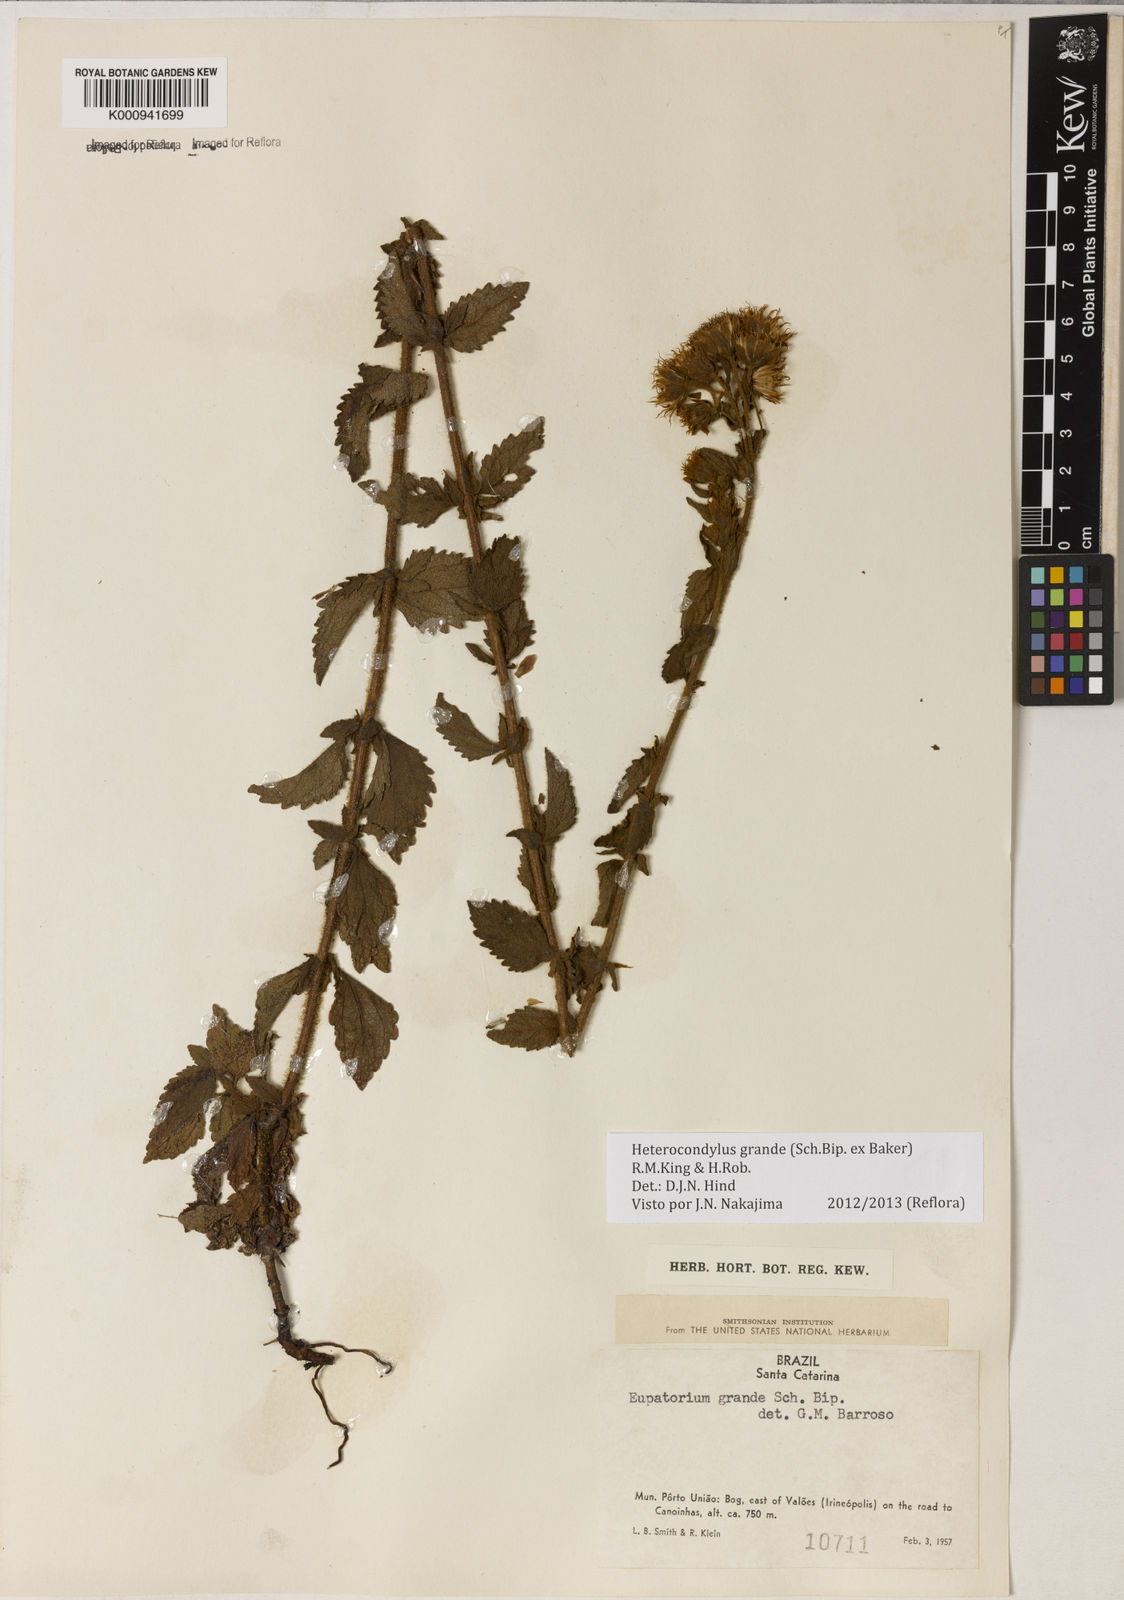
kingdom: Plantae
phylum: Tracheophyta
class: Magnoliopsida
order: Asterales
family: Asteraceae
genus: Heterocondylus
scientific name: Heterocondylus
